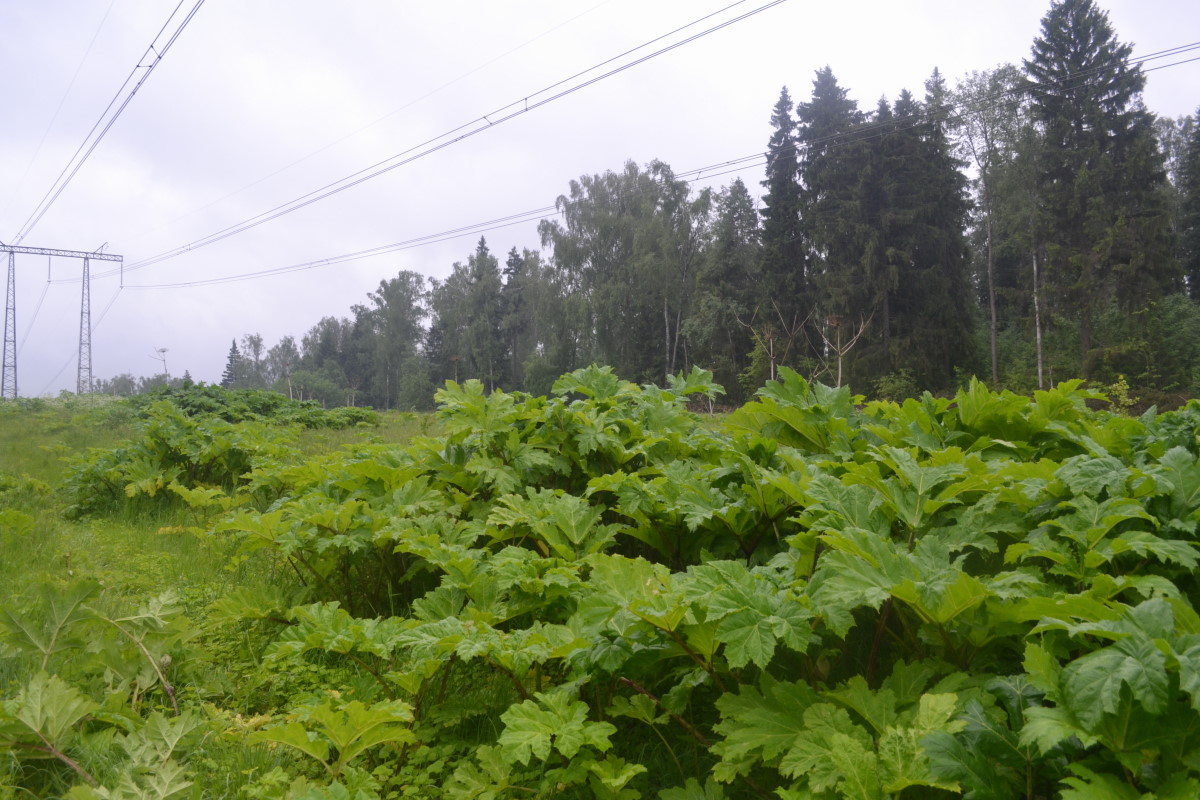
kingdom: Plantae
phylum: Tracheophyta
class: Magnoliopsida
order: Apiales
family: Apiaceae
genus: Heracleum
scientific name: Heracleum sosnowskyi
